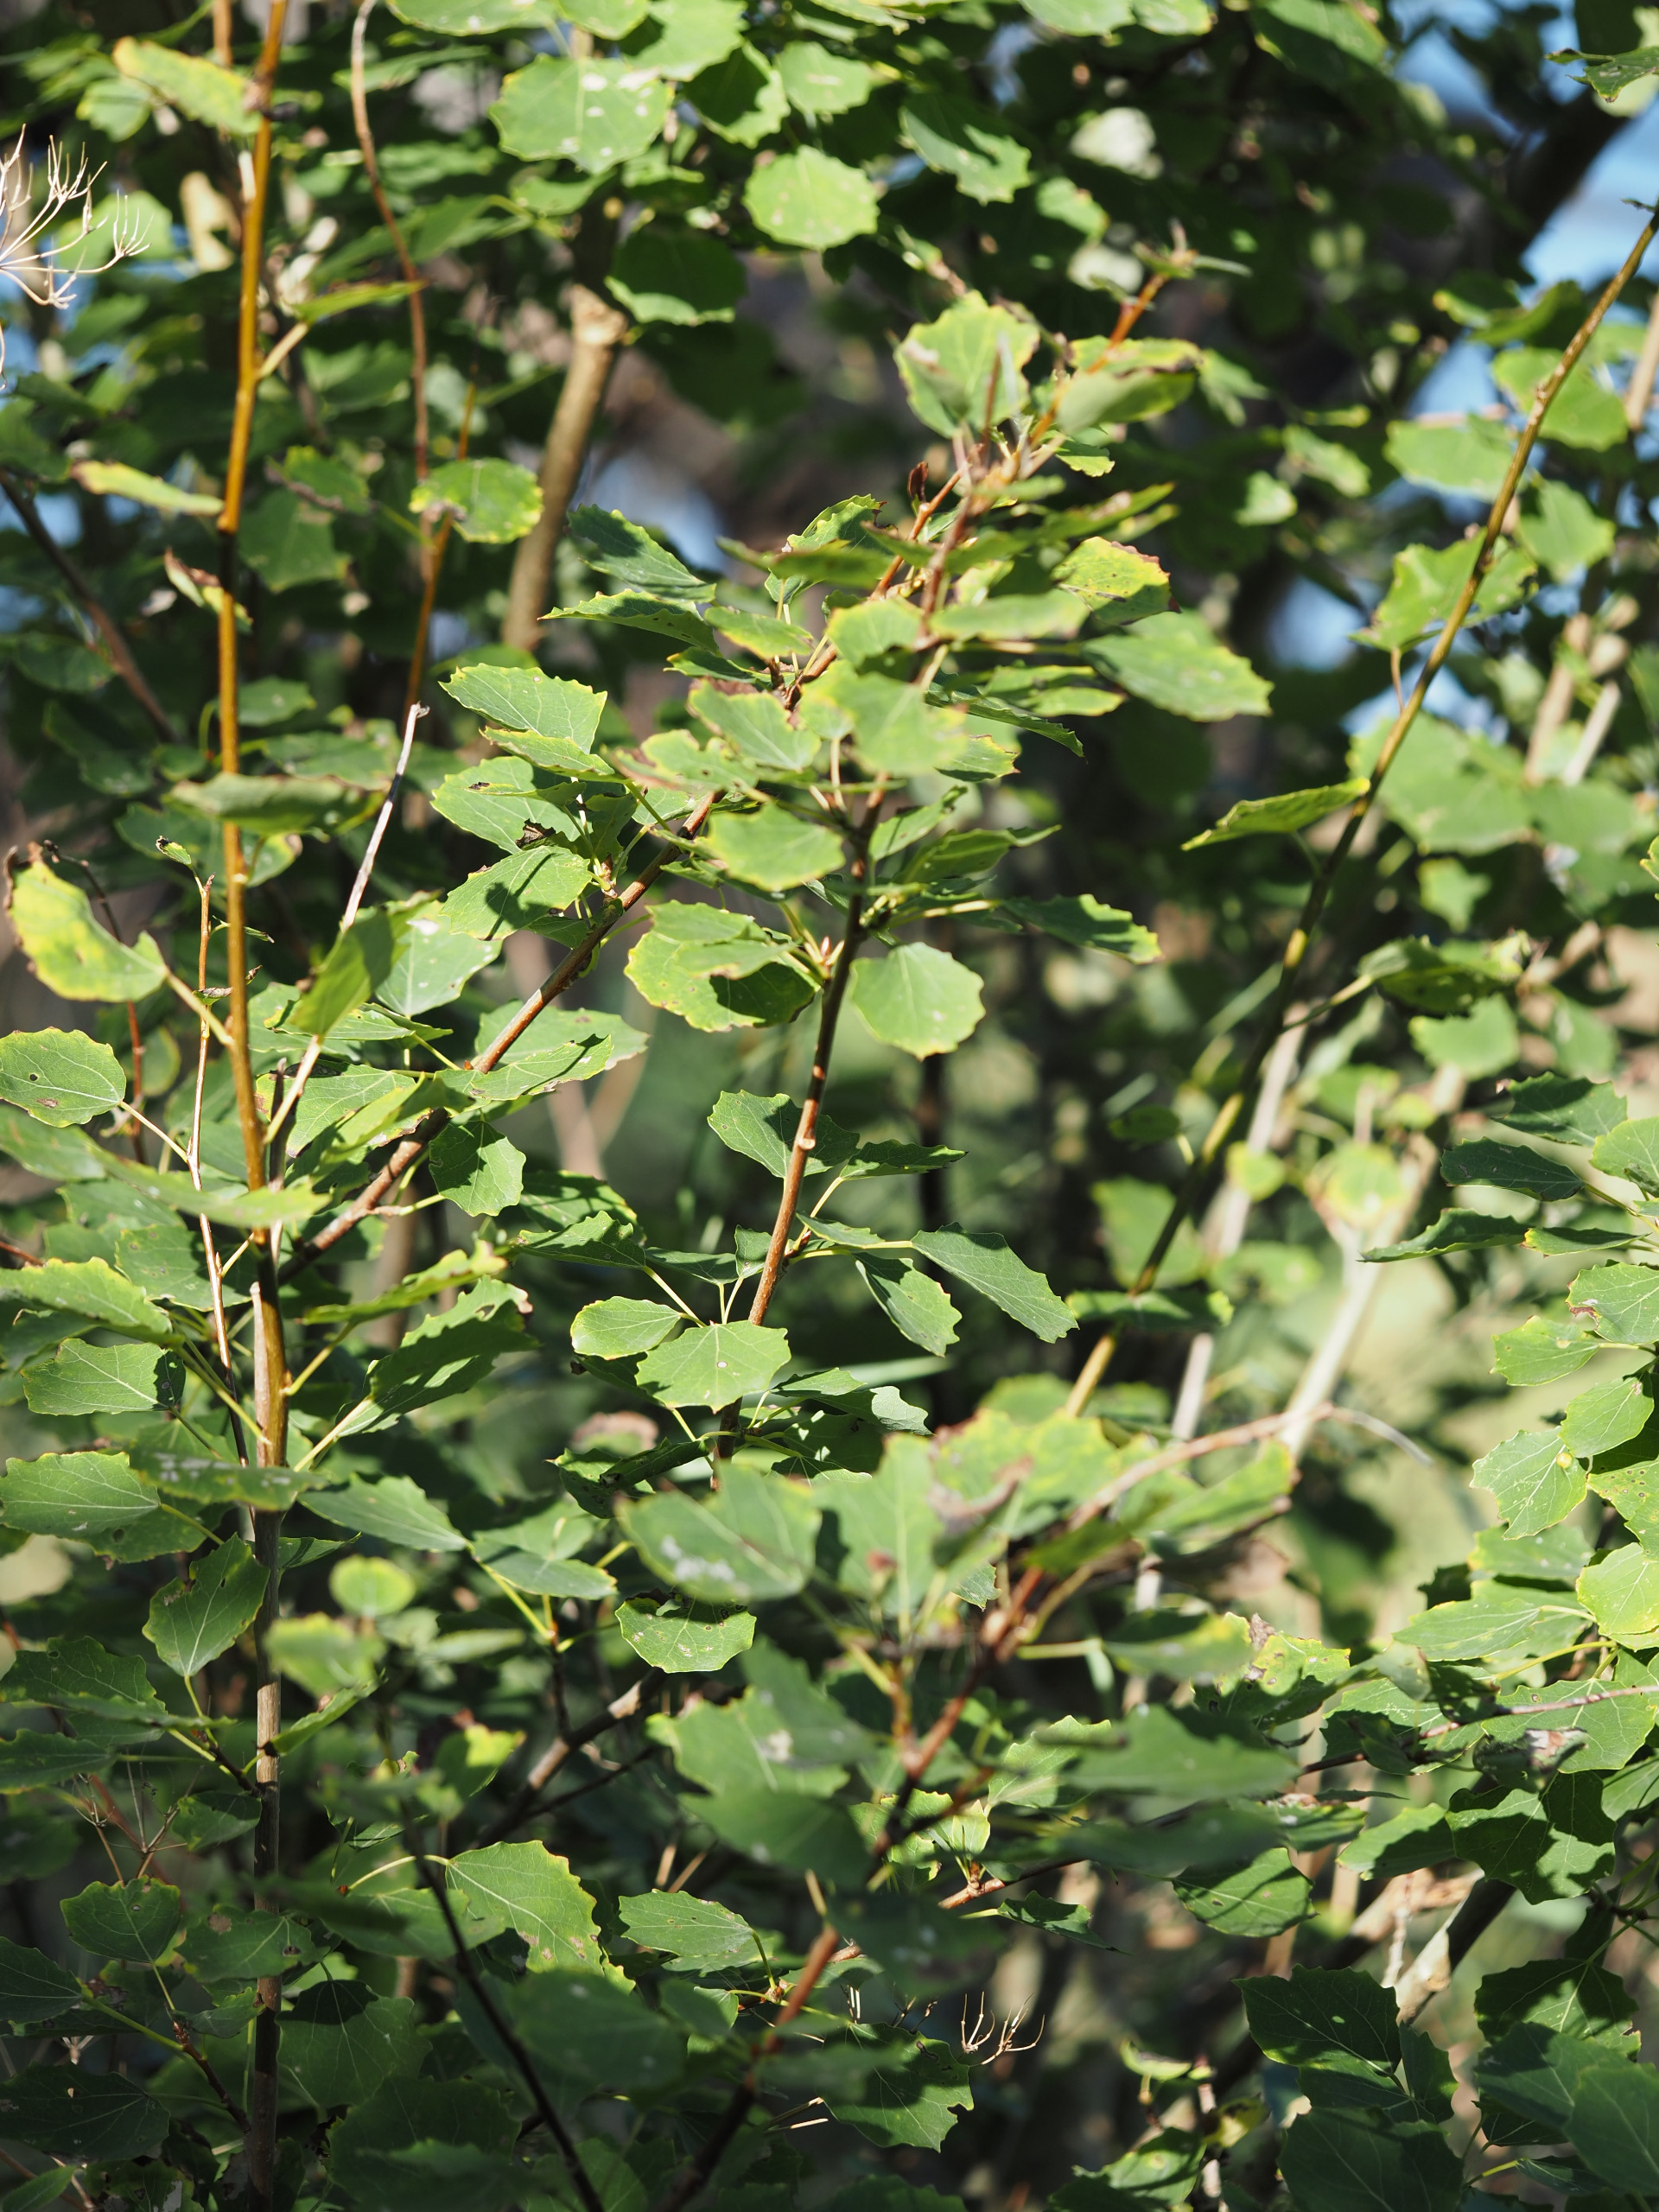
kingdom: Plantae
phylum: Tracheophyta
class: Magnoliopsida
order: Malpighiales
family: Salicaceae
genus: Populus
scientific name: Populus tremula
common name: Bævreasp
